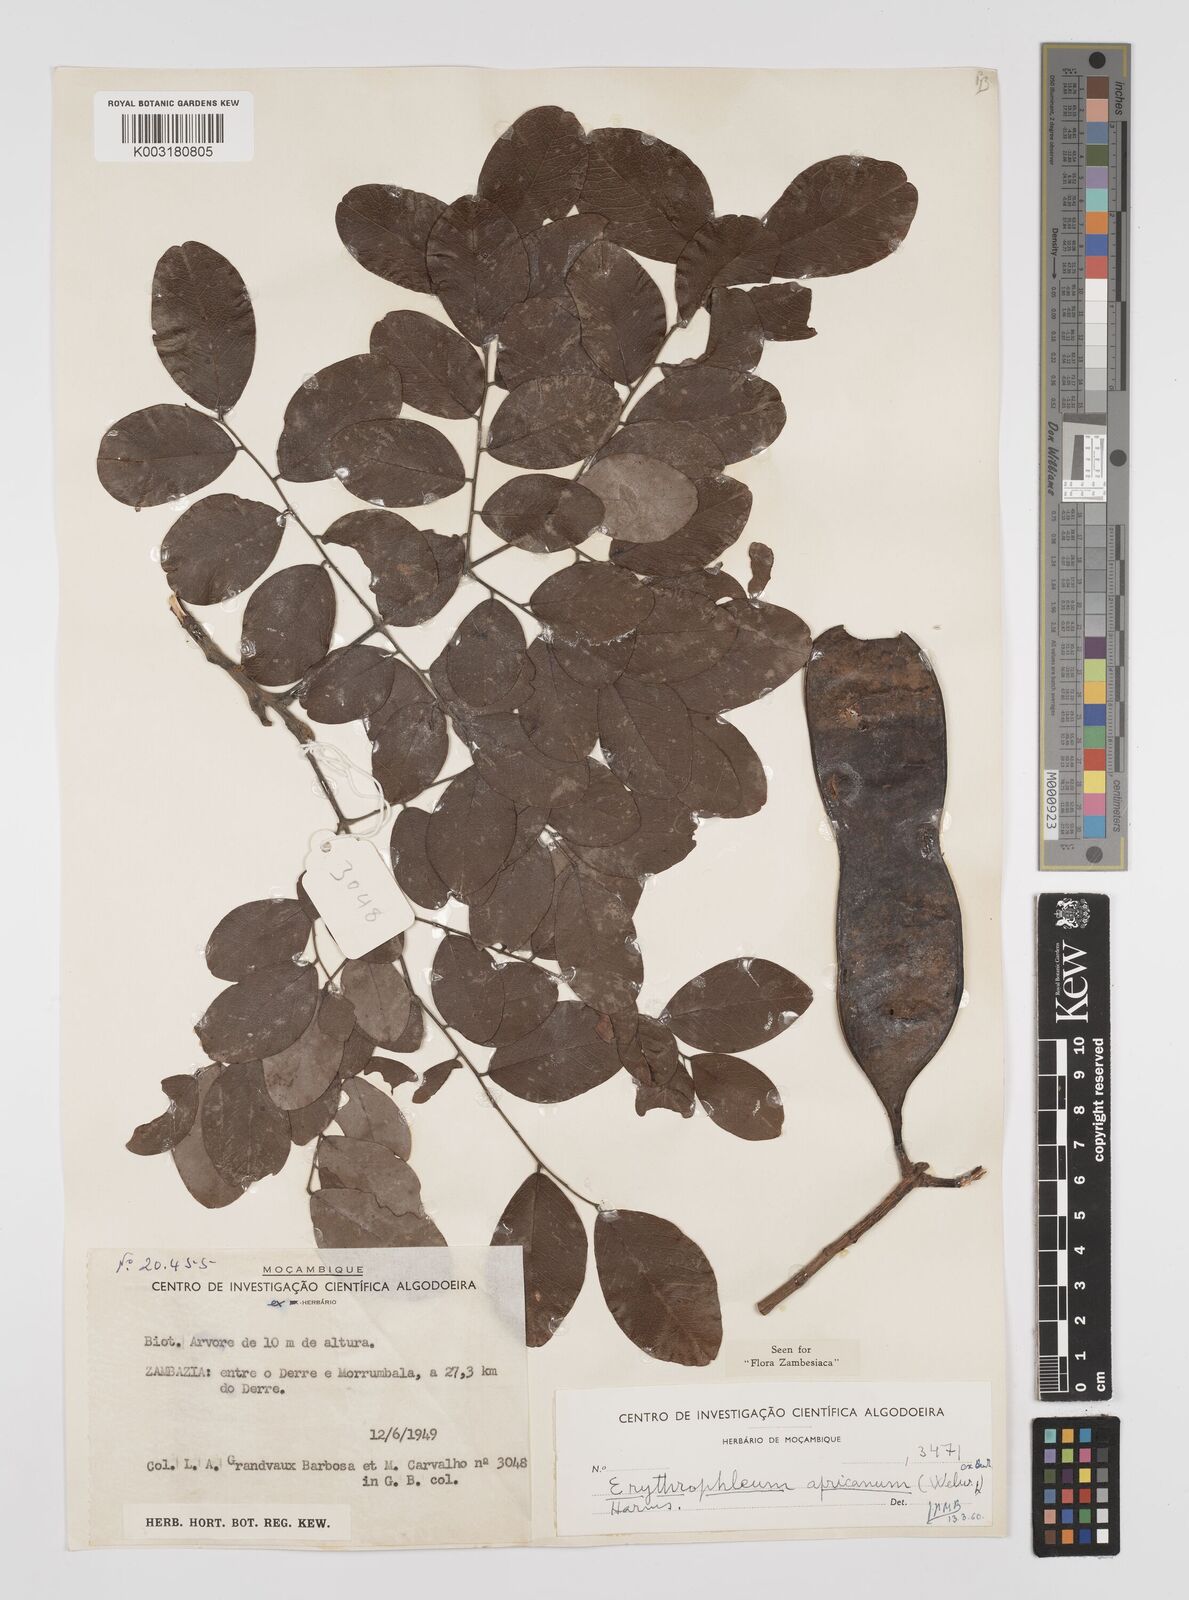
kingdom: Plantae
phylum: Tracheophyta
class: Magnoliopsida
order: Fabales
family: Fabaceae
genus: Peltophorum
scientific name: Peltophorum africanum
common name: African black wattle
